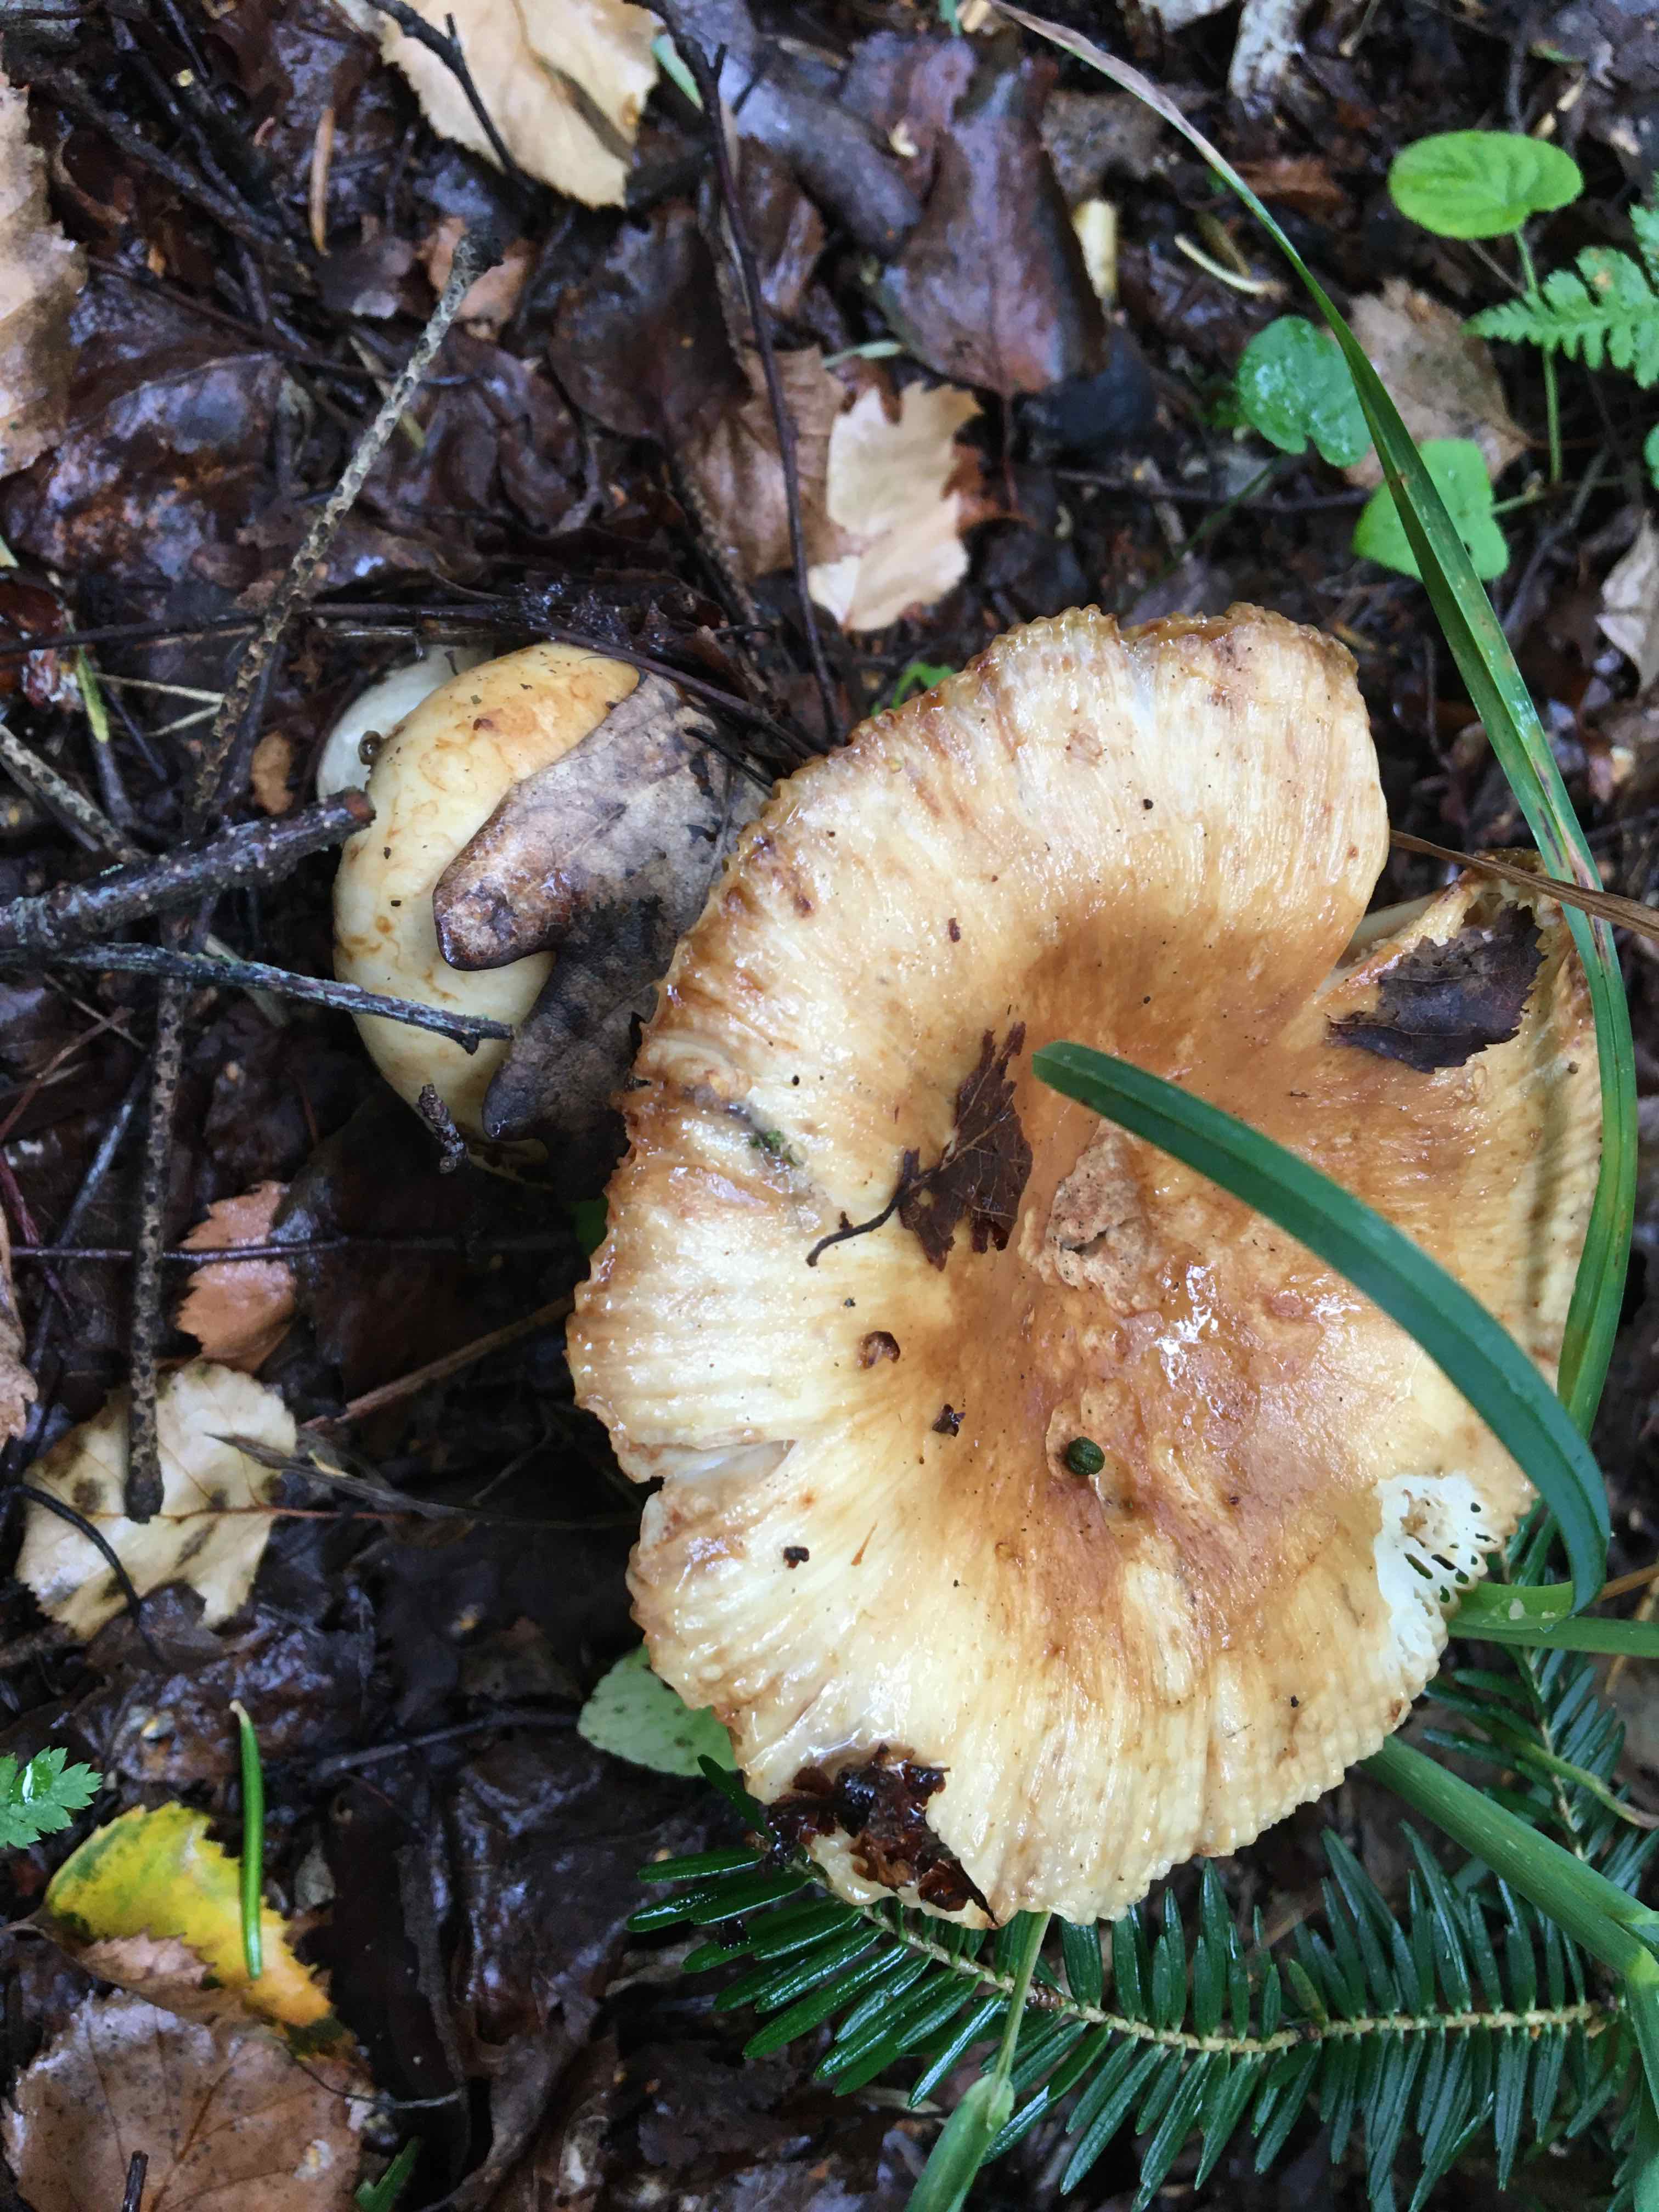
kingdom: Fungi
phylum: Basidiomycota
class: Agaricomycetes
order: Russulales
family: Russulaceae
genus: Russula
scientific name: Russula foetens
